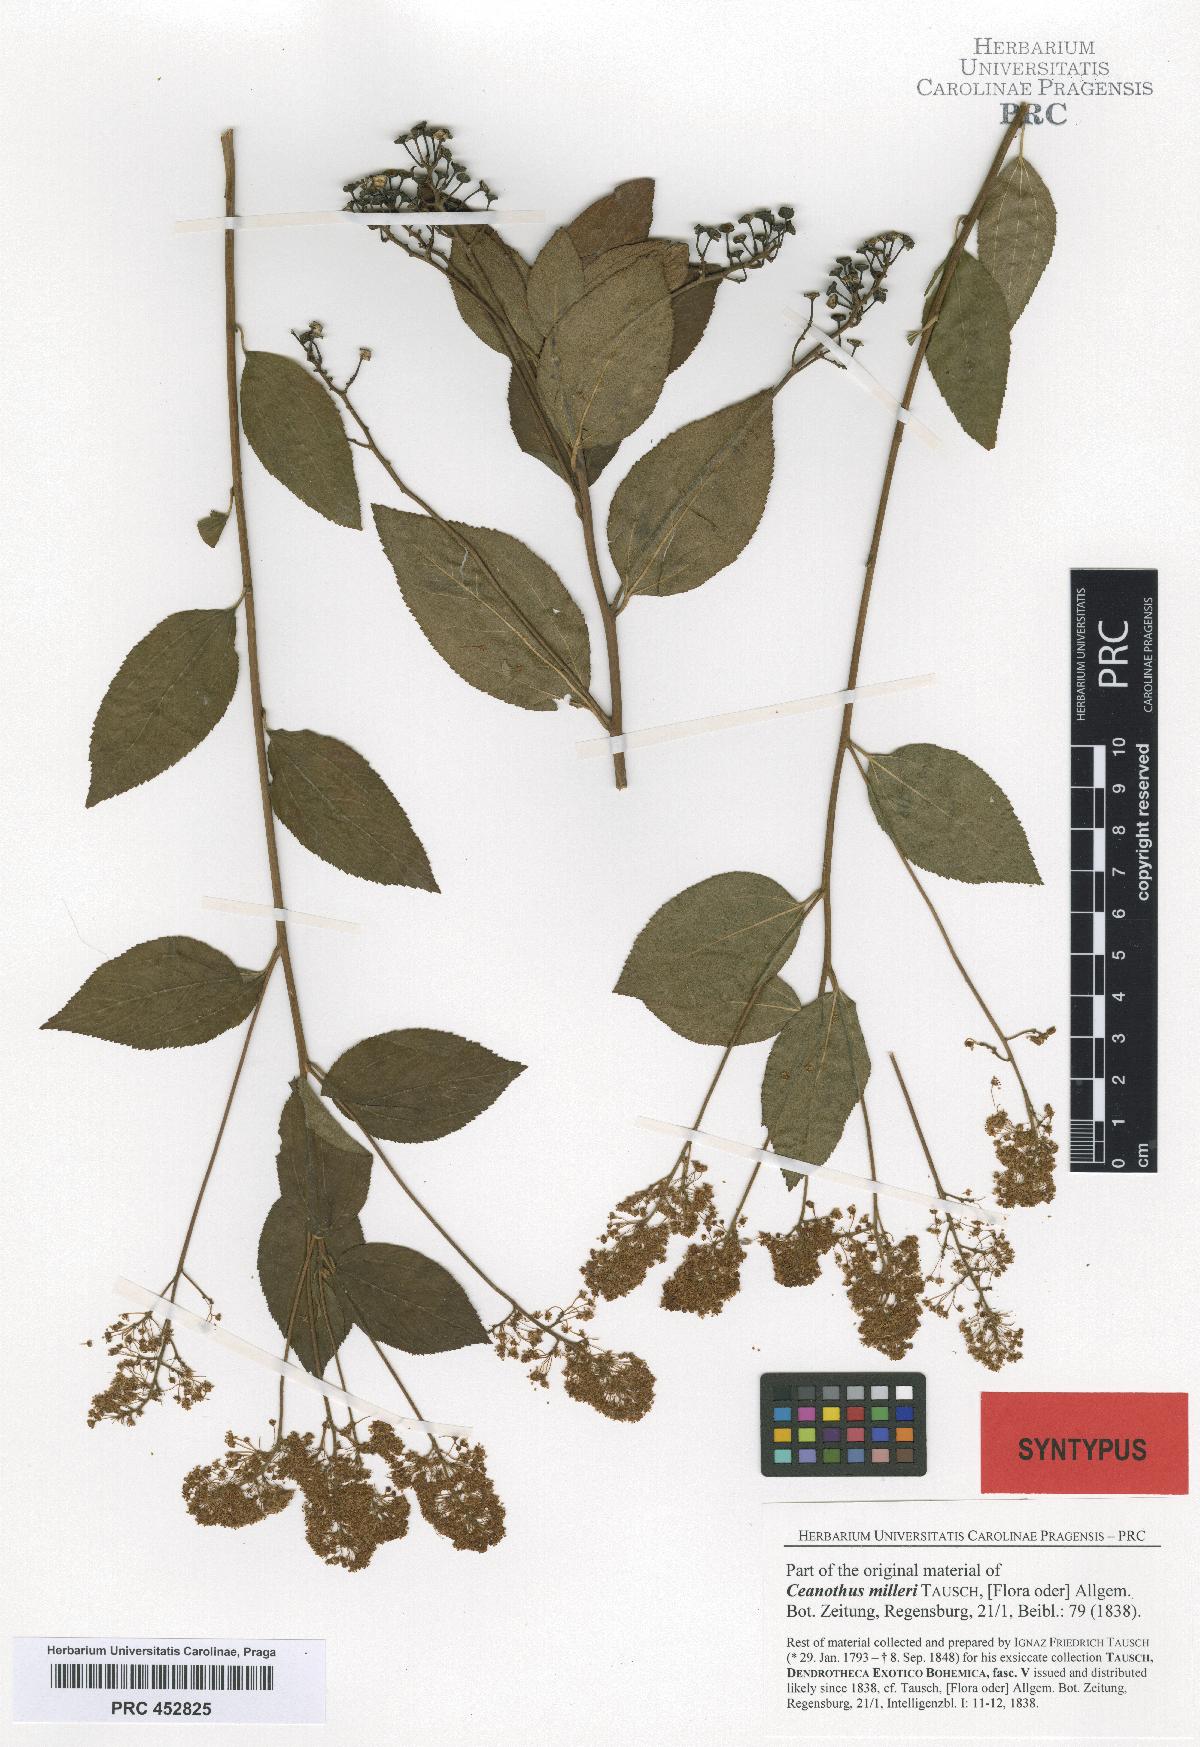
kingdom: Plantae
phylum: Tracheophyta
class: Magnoliopsida
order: Rosales
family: Rhamnaceae
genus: Ceanothus
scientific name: Ceanothus americanus
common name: Redroot
